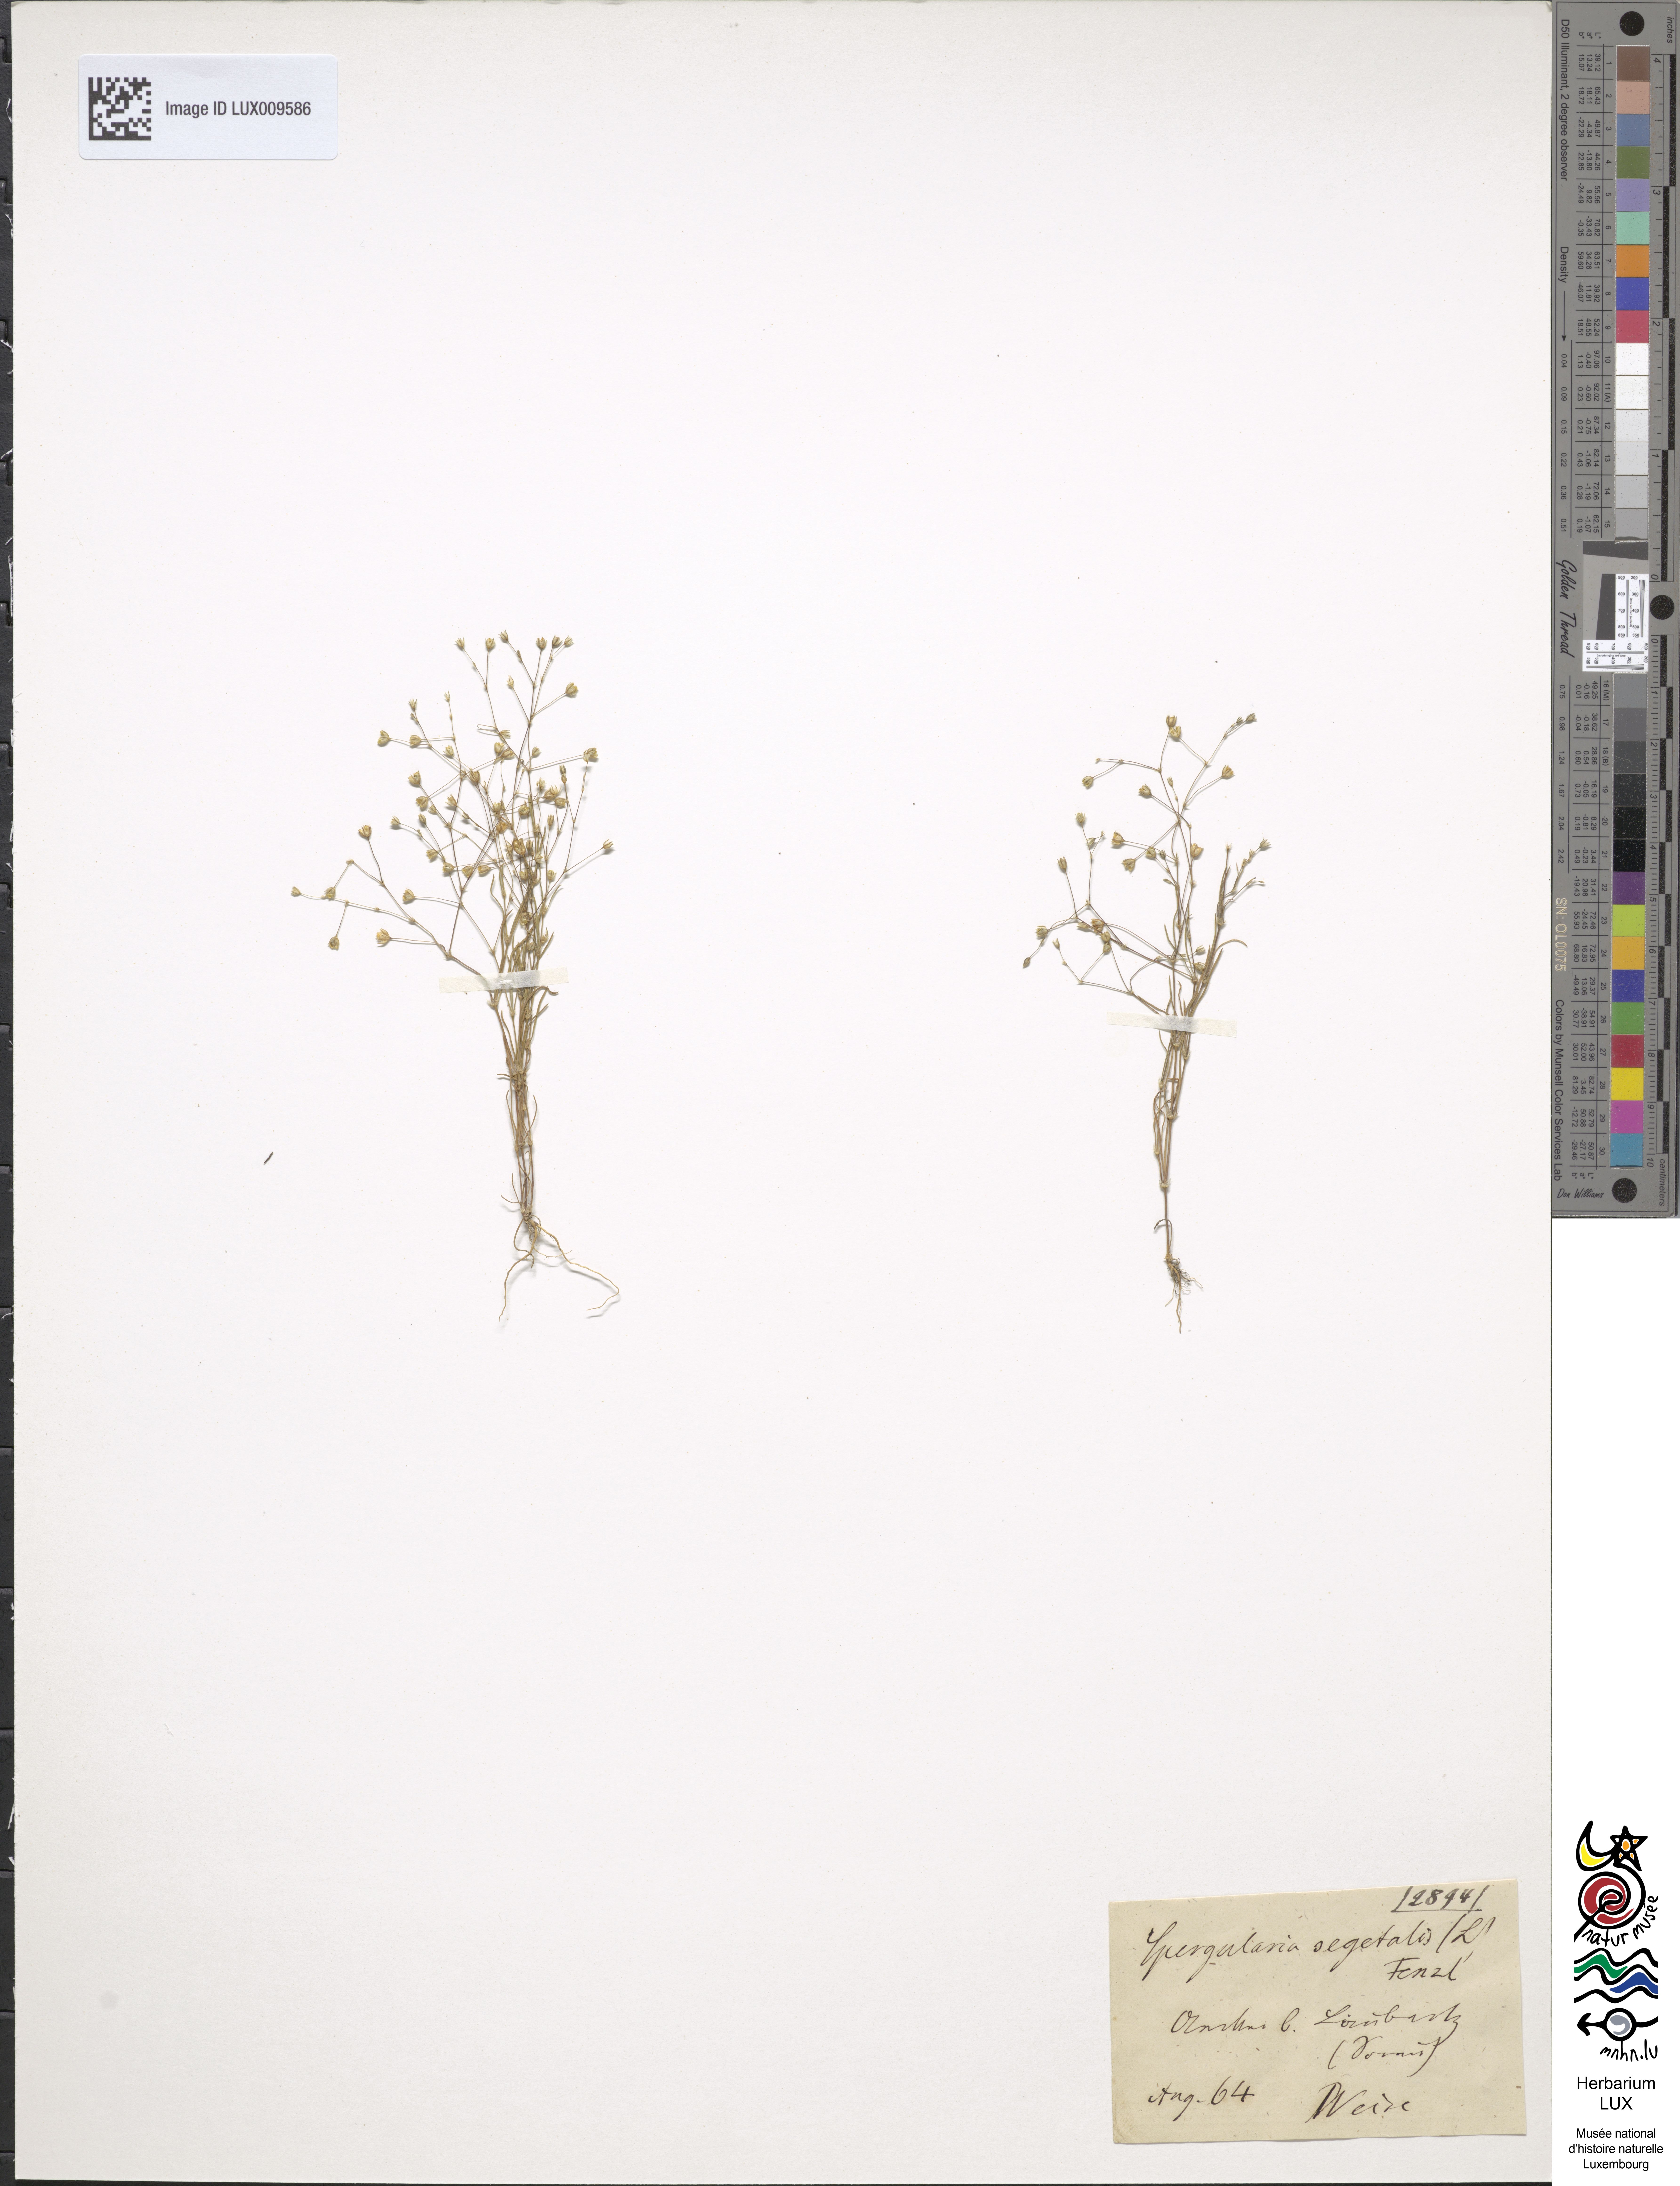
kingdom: Plantae
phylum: Tracheophyta
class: Magnoliopsida
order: Caryophyllales
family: Caryophyllaceae
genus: Spergularia
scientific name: Spergularia segetalis
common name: Corn sand spurrey
